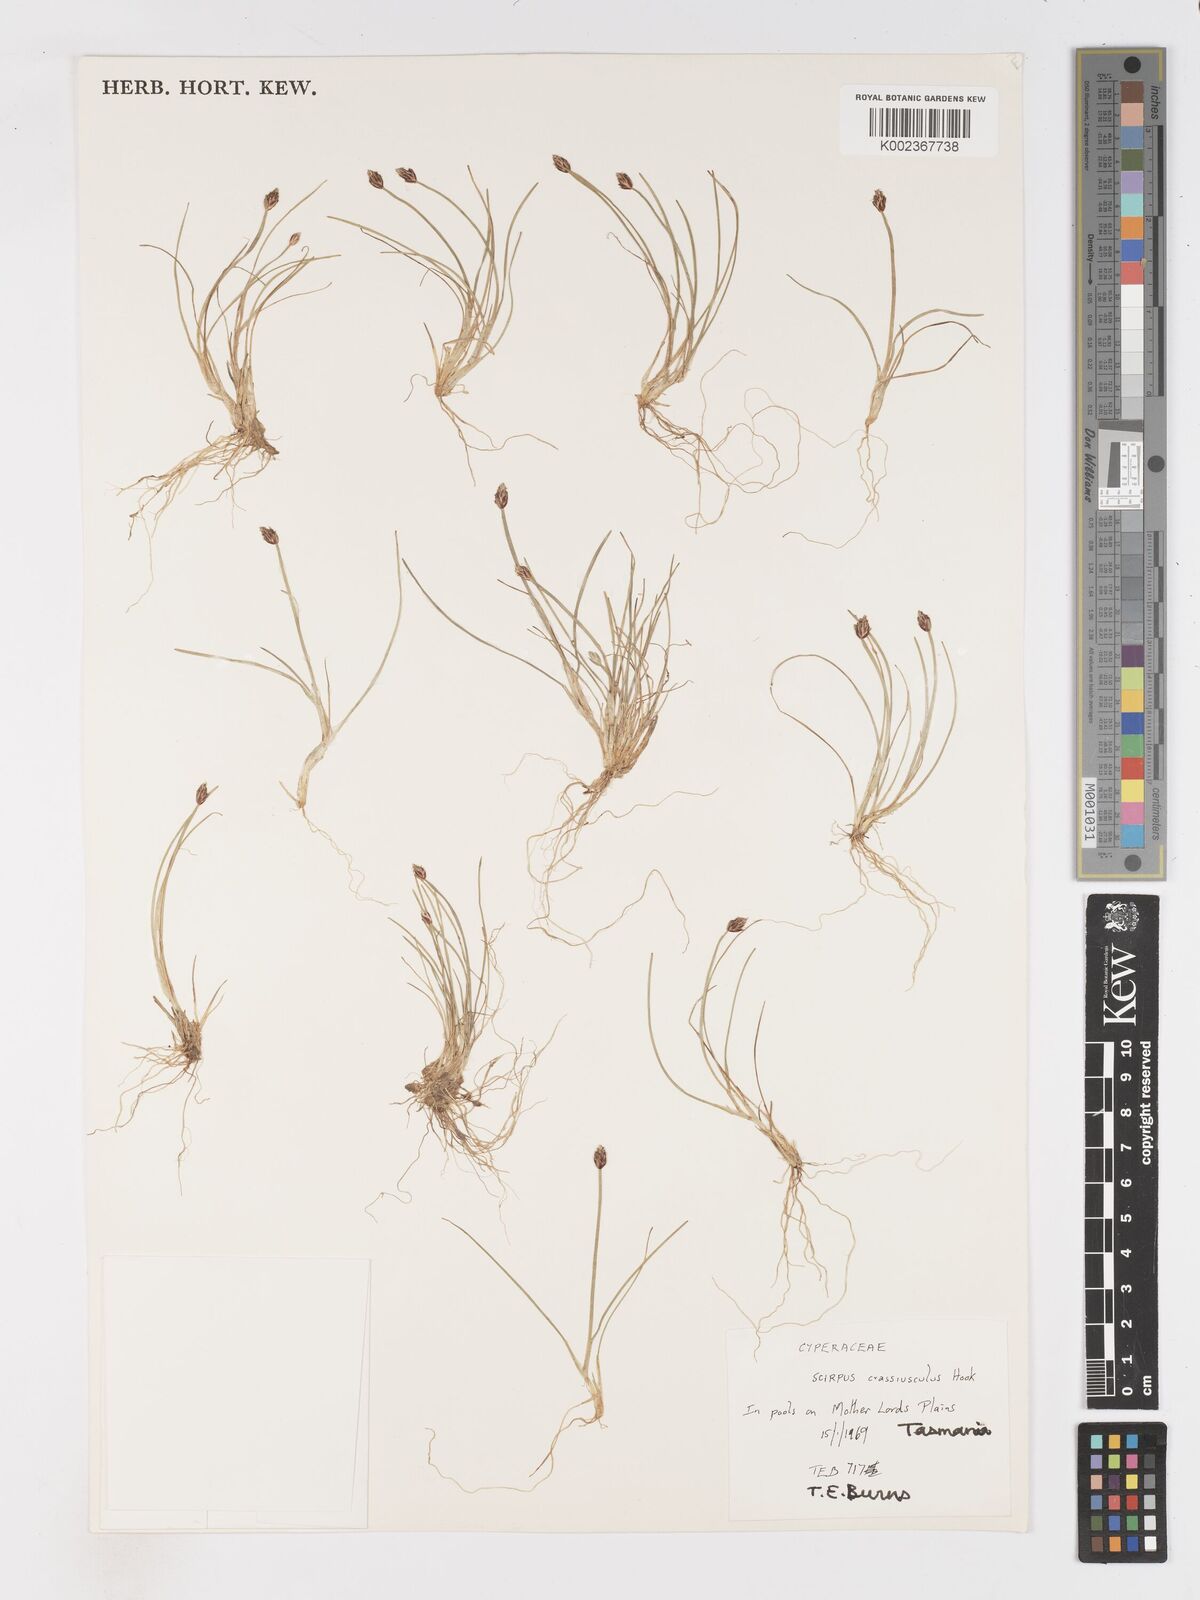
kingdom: Plantae
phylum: Tracheophyta
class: Liliopsida
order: Poales
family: Cyperaceae
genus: Isolepis
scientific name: Isolepis crassiuscula
